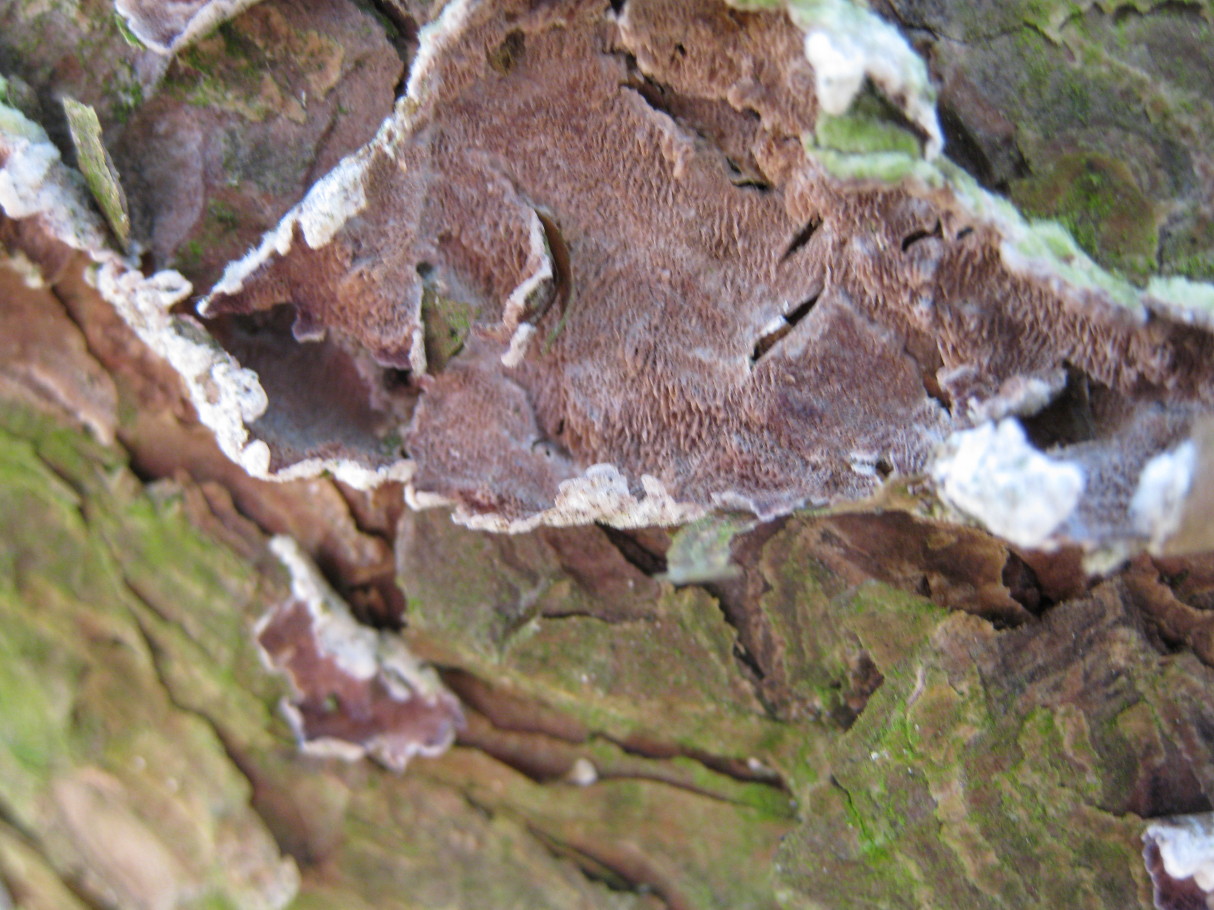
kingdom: Fungi
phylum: Basidiomycota
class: Agaricomycetes
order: Hymenochaetales
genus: Trichaptum
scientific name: Trichaptum abietinum
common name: almindelig violporesvamp
